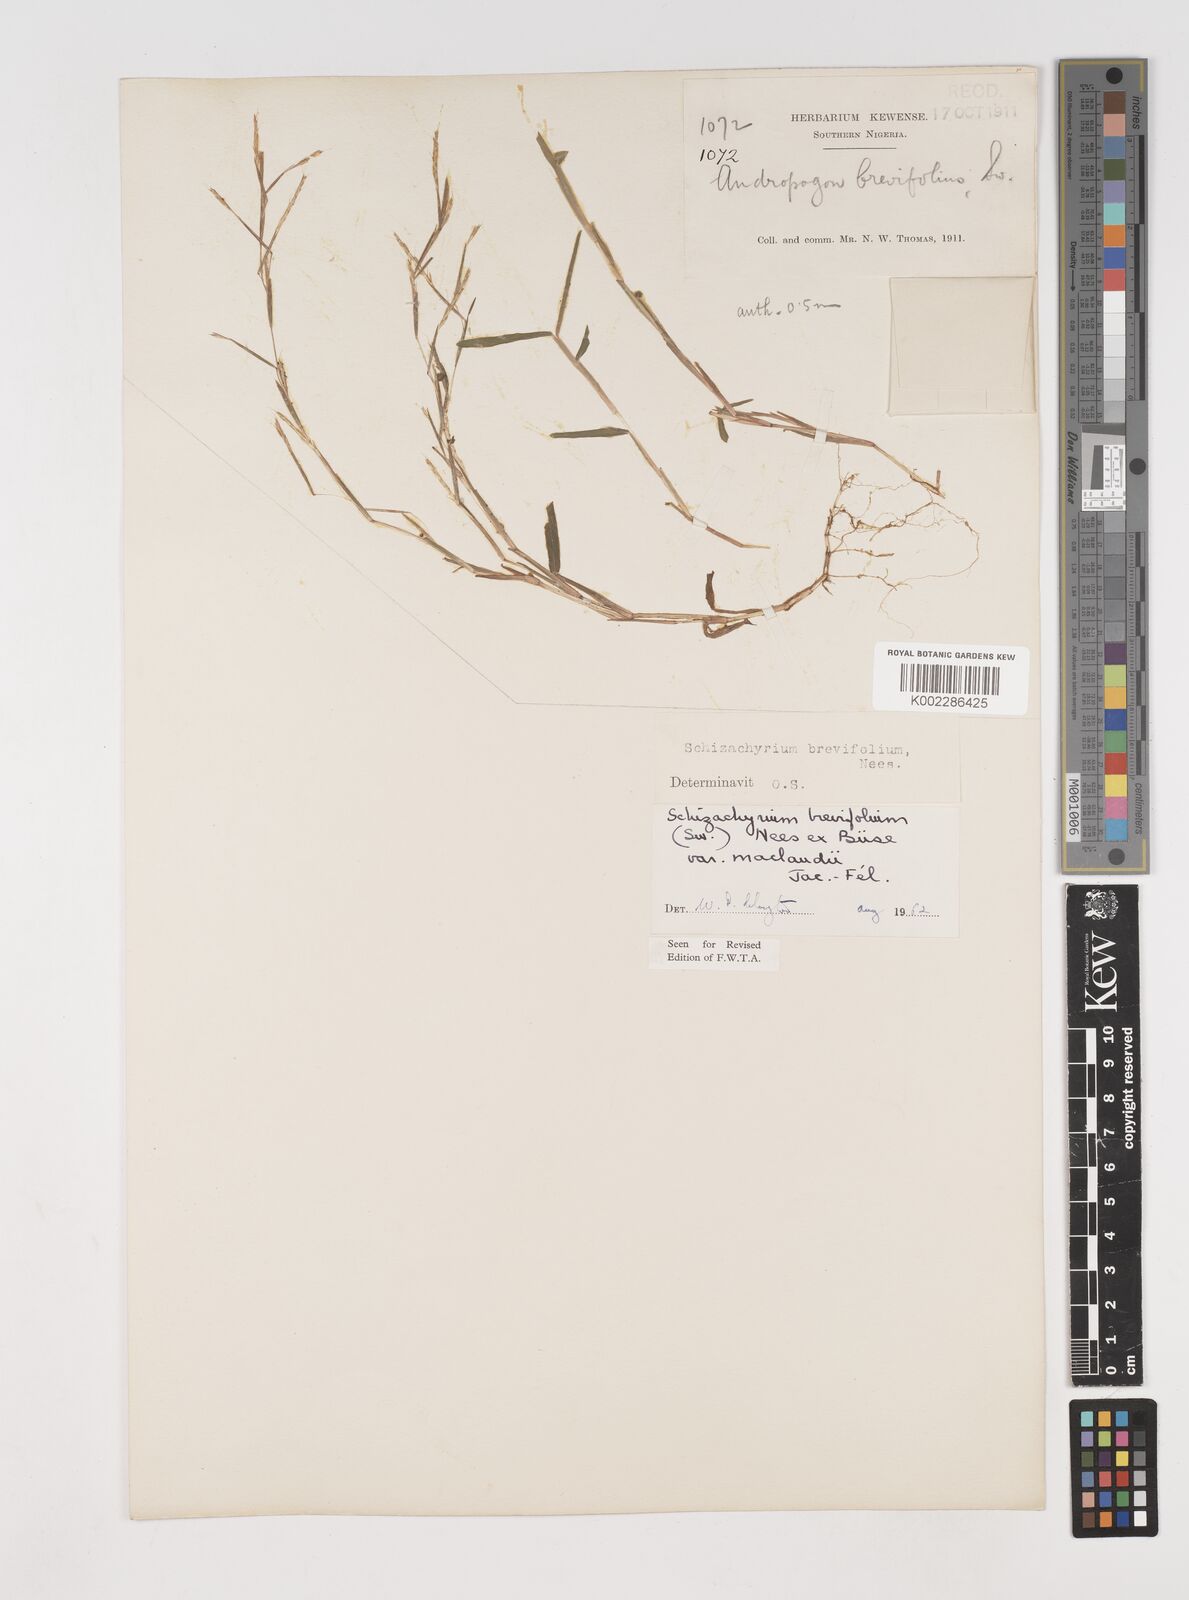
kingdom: Plantae
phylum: Tracheophyta
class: Liliopsida
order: Poales
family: Poaceae
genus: Schizachyrium
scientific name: Schizachyrium maclaudii
